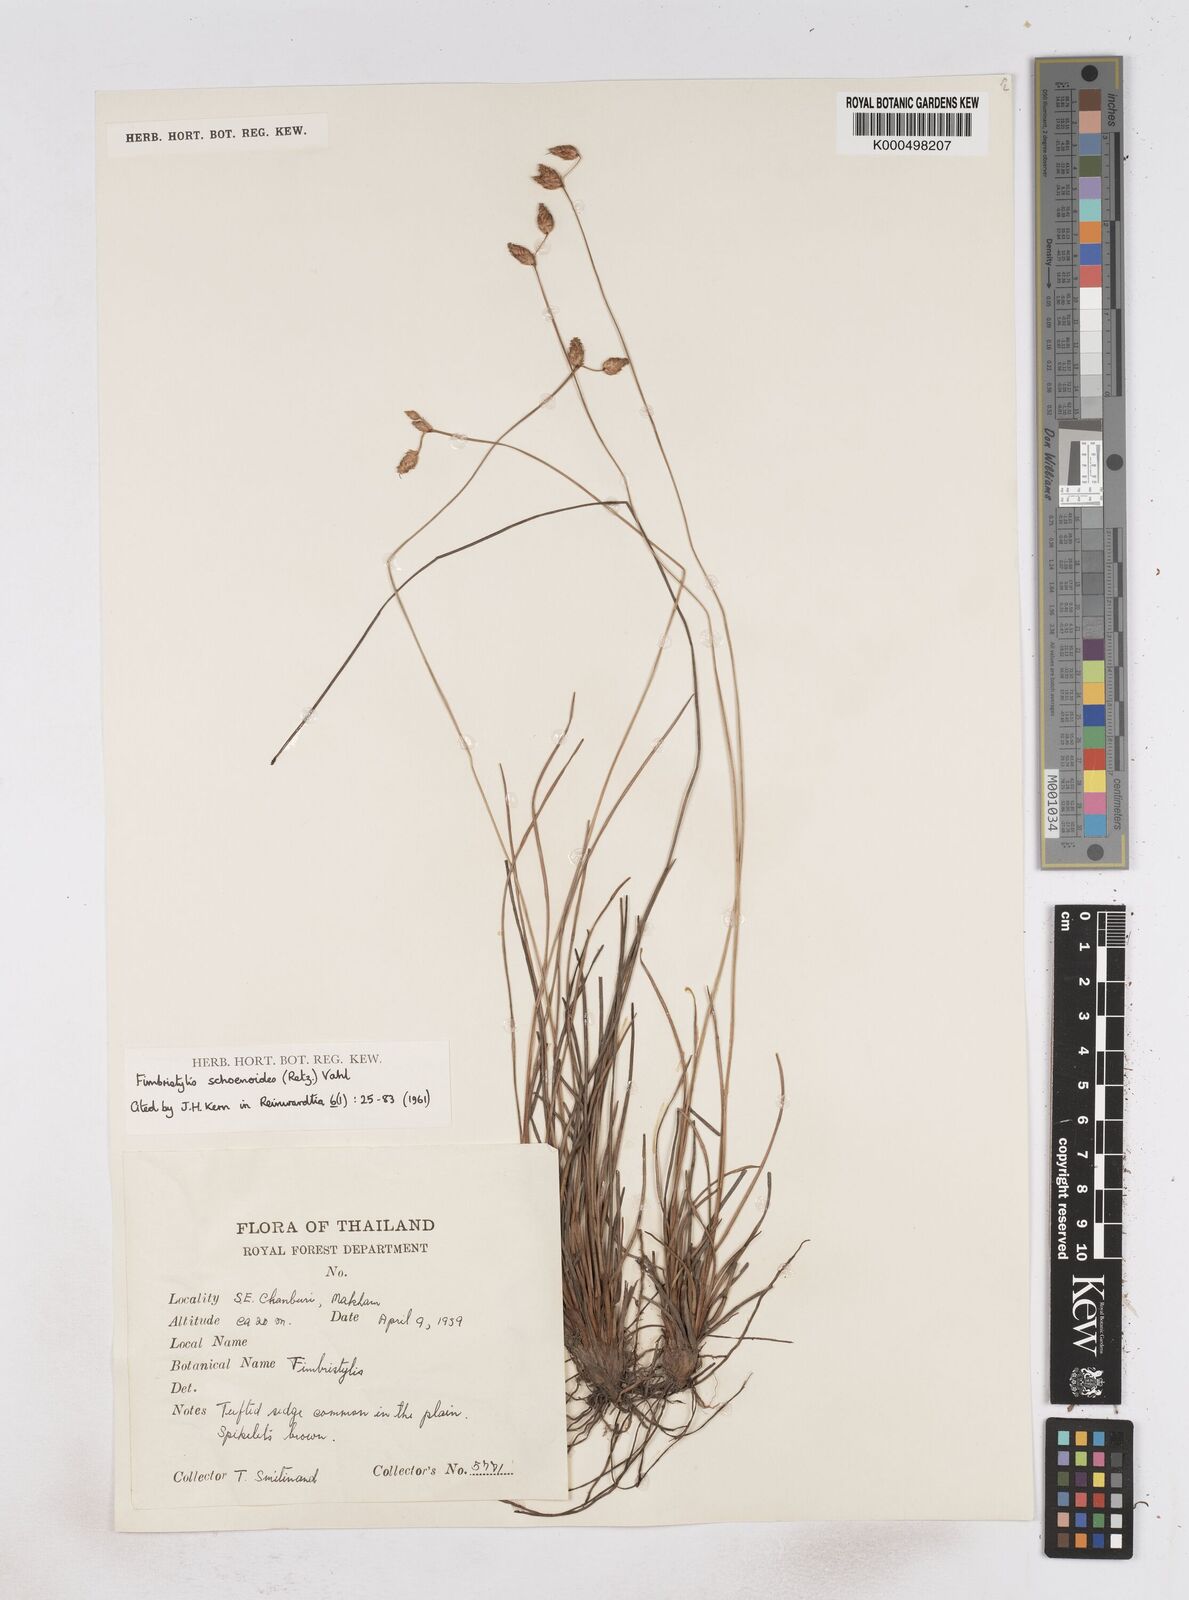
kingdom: Plantae
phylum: Tracheophyta
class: Liliopsida
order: Poales
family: Cyperaceae
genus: Fimbristylis
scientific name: Fimbristylis schoenoides
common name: Ditch fimbry
